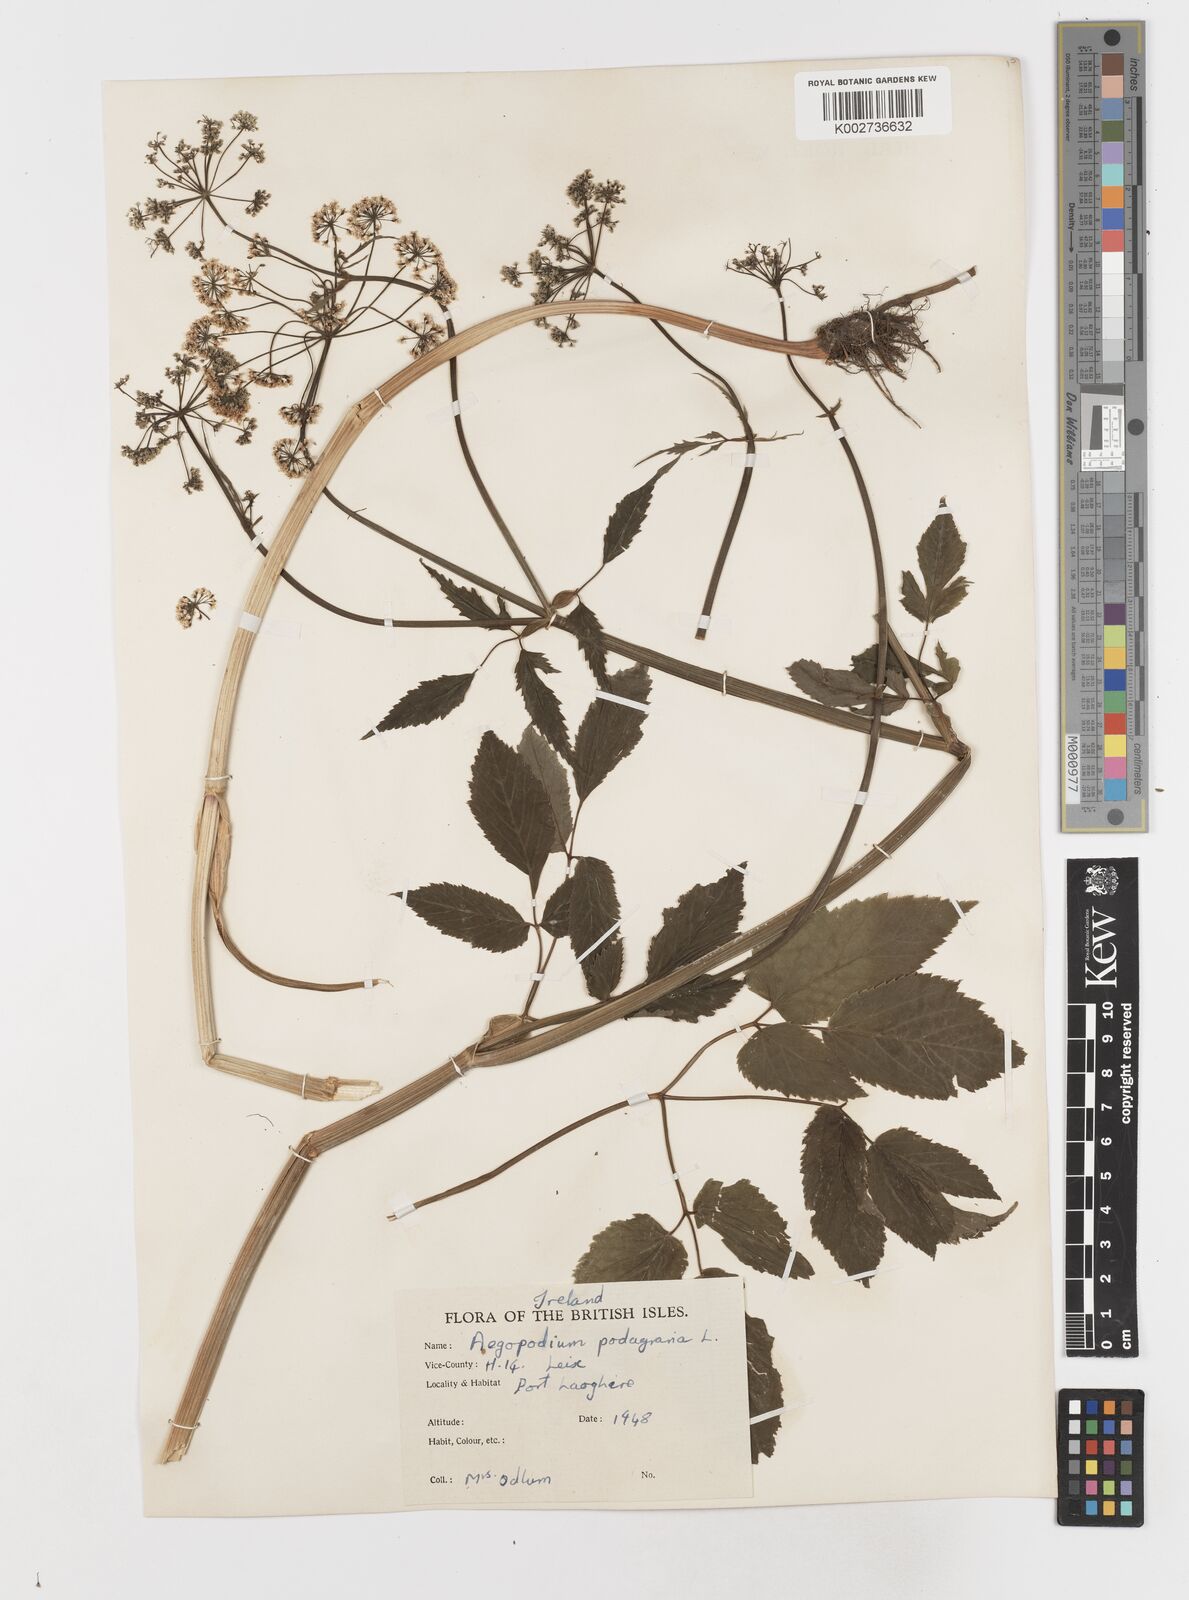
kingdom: Plantae
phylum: Tracheophyta
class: Magnoliopsida
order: Apiales
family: Apiaceae
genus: Aegopodium
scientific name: Aegopodium podagraria
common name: Ground-elder
